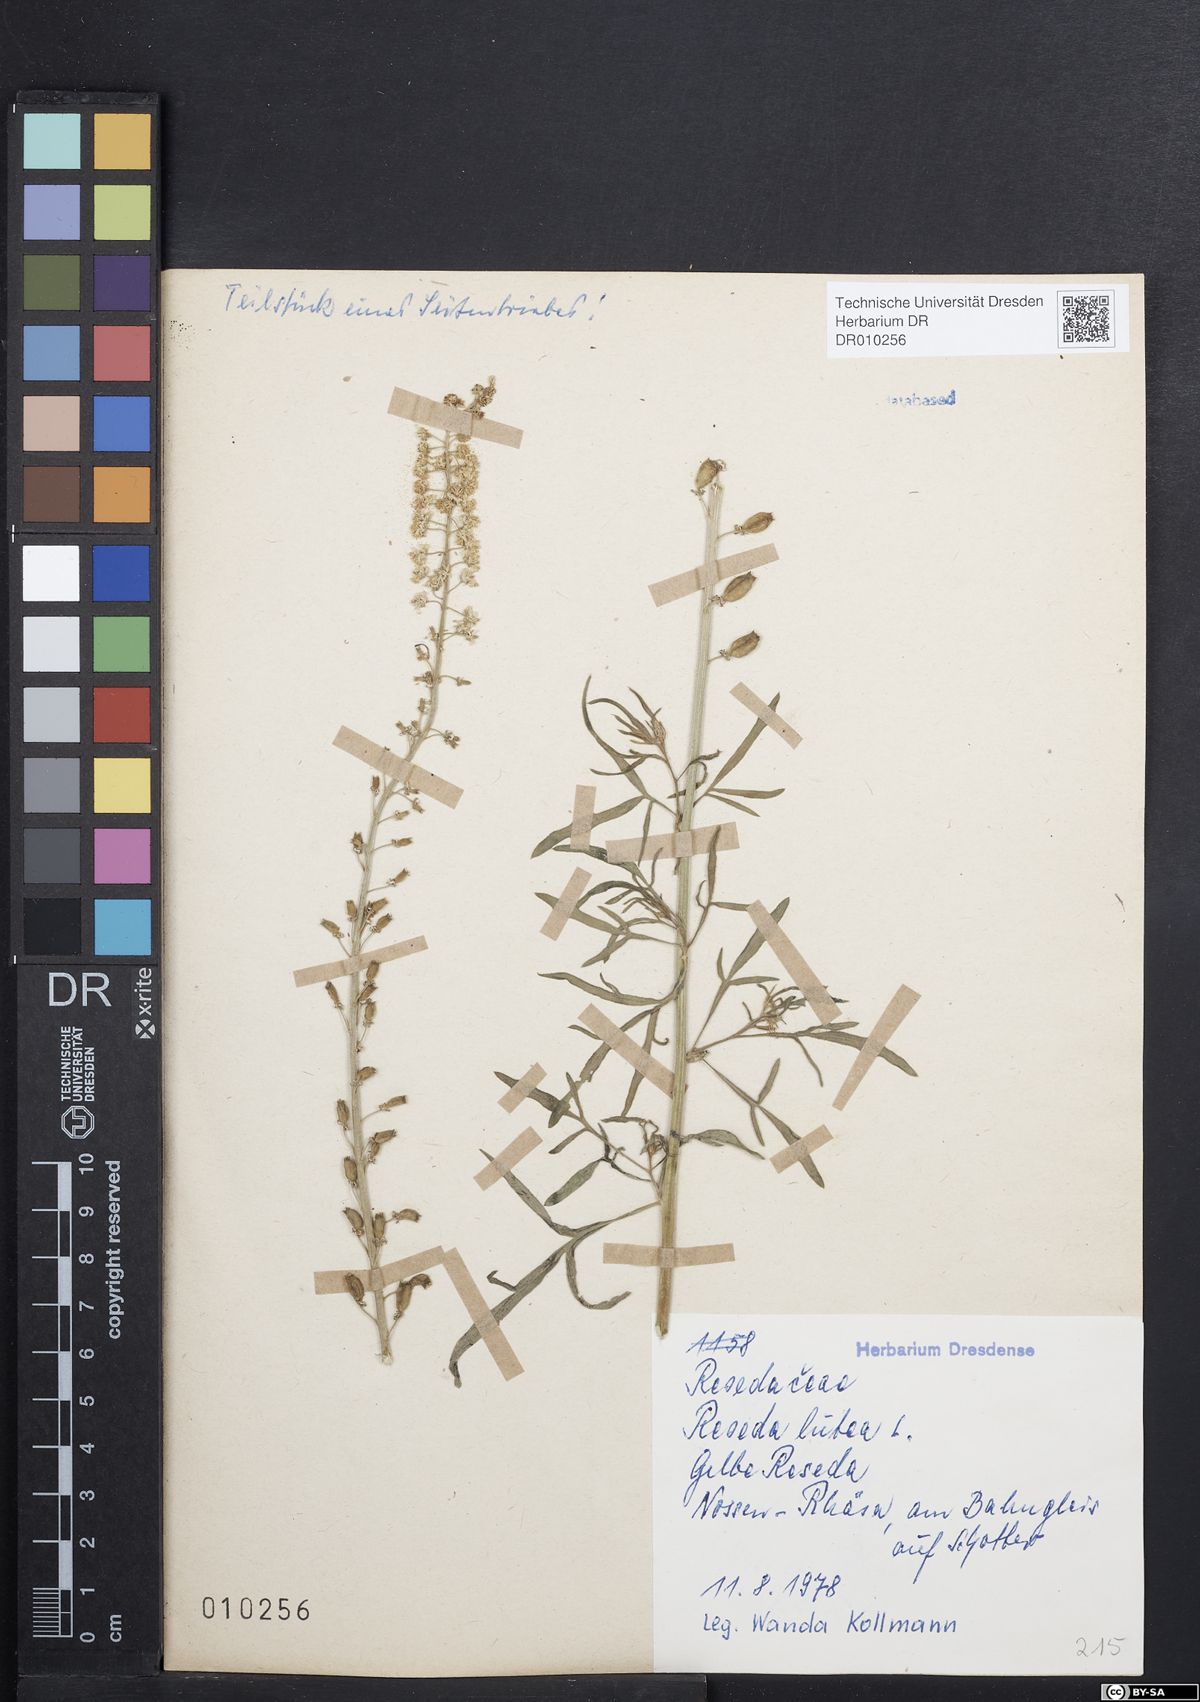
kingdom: Plantae
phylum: Tracheophyta
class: Magnoliopsida
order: Brassicales
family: Resedaceae
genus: Reseda
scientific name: Reseda lutea
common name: Wild mignonette
